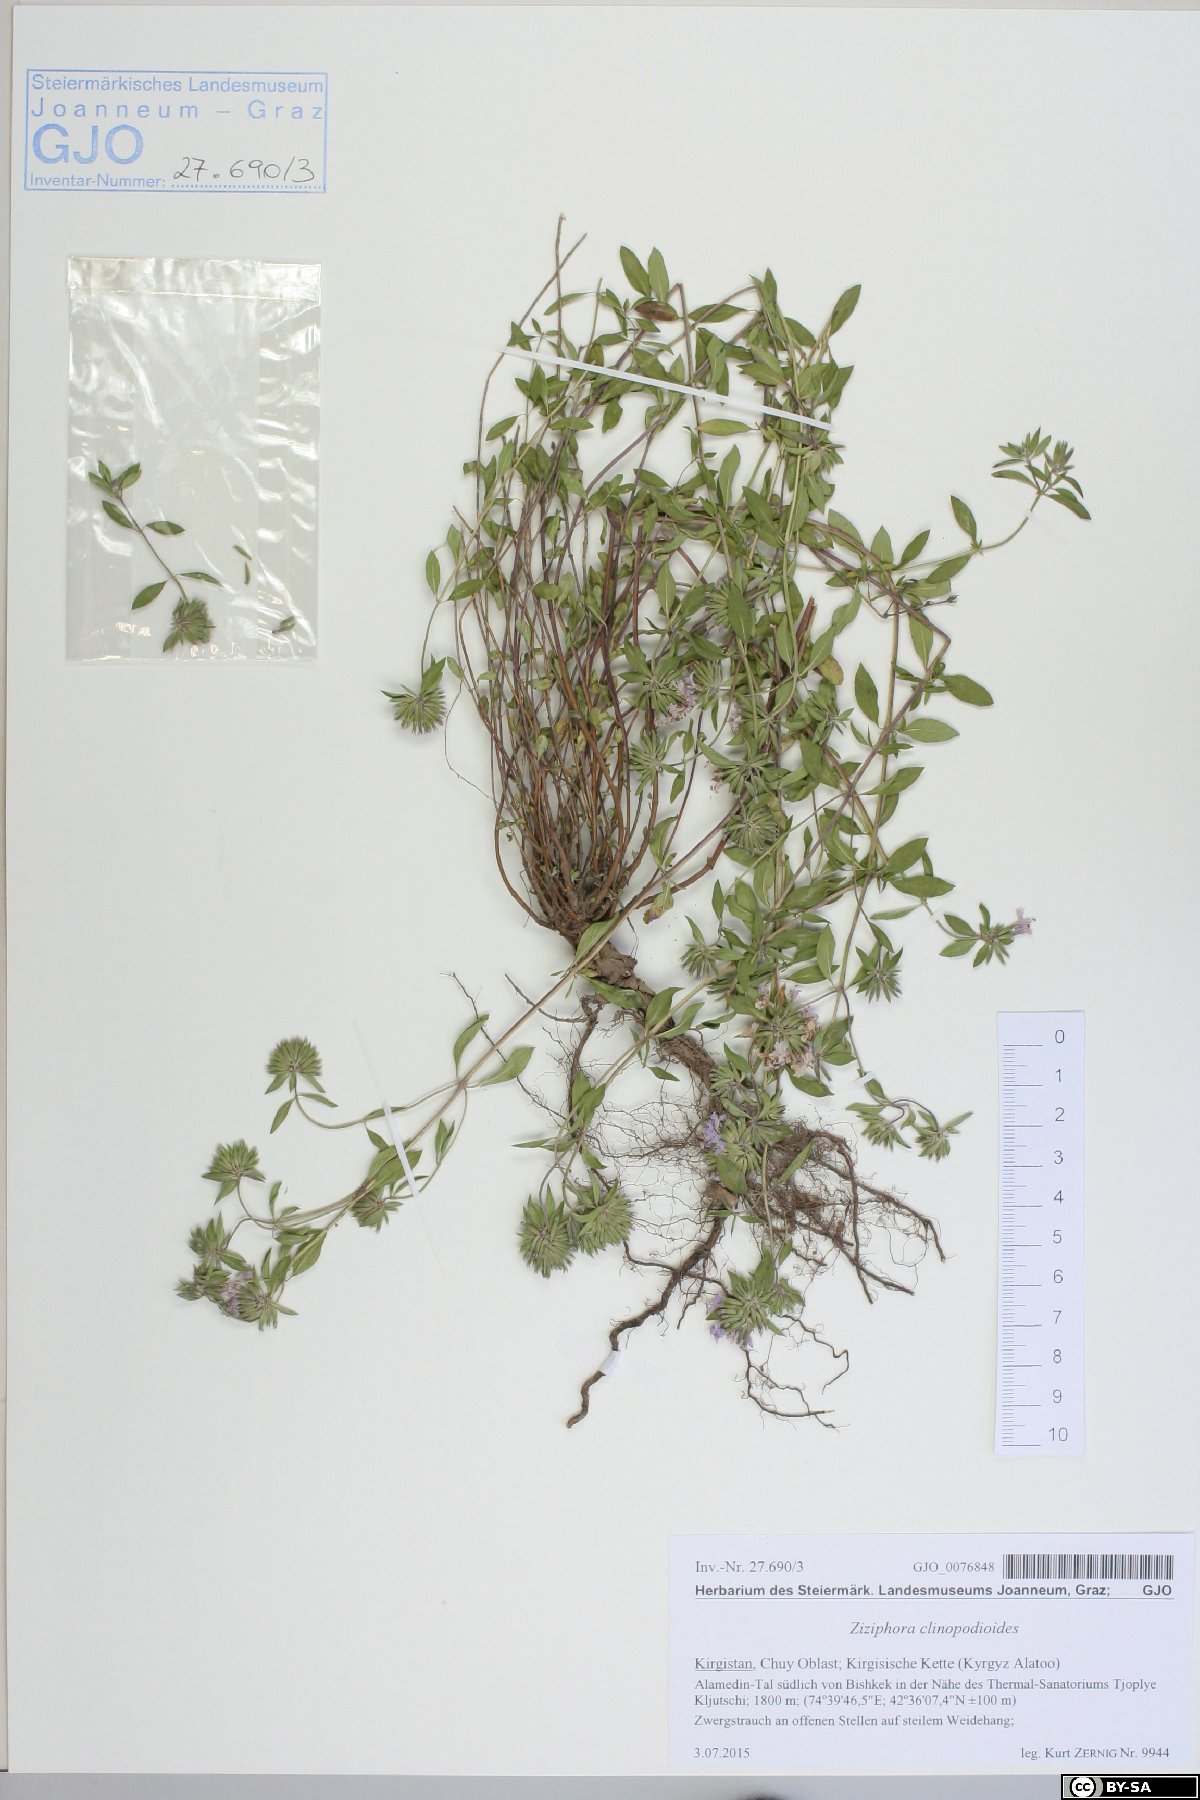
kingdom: Plantae
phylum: Tracheophyta
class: Magnoliopsida
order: Lamiales
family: Lamiaceae
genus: Ziziphora
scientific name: Ziziphora clinopodioides
